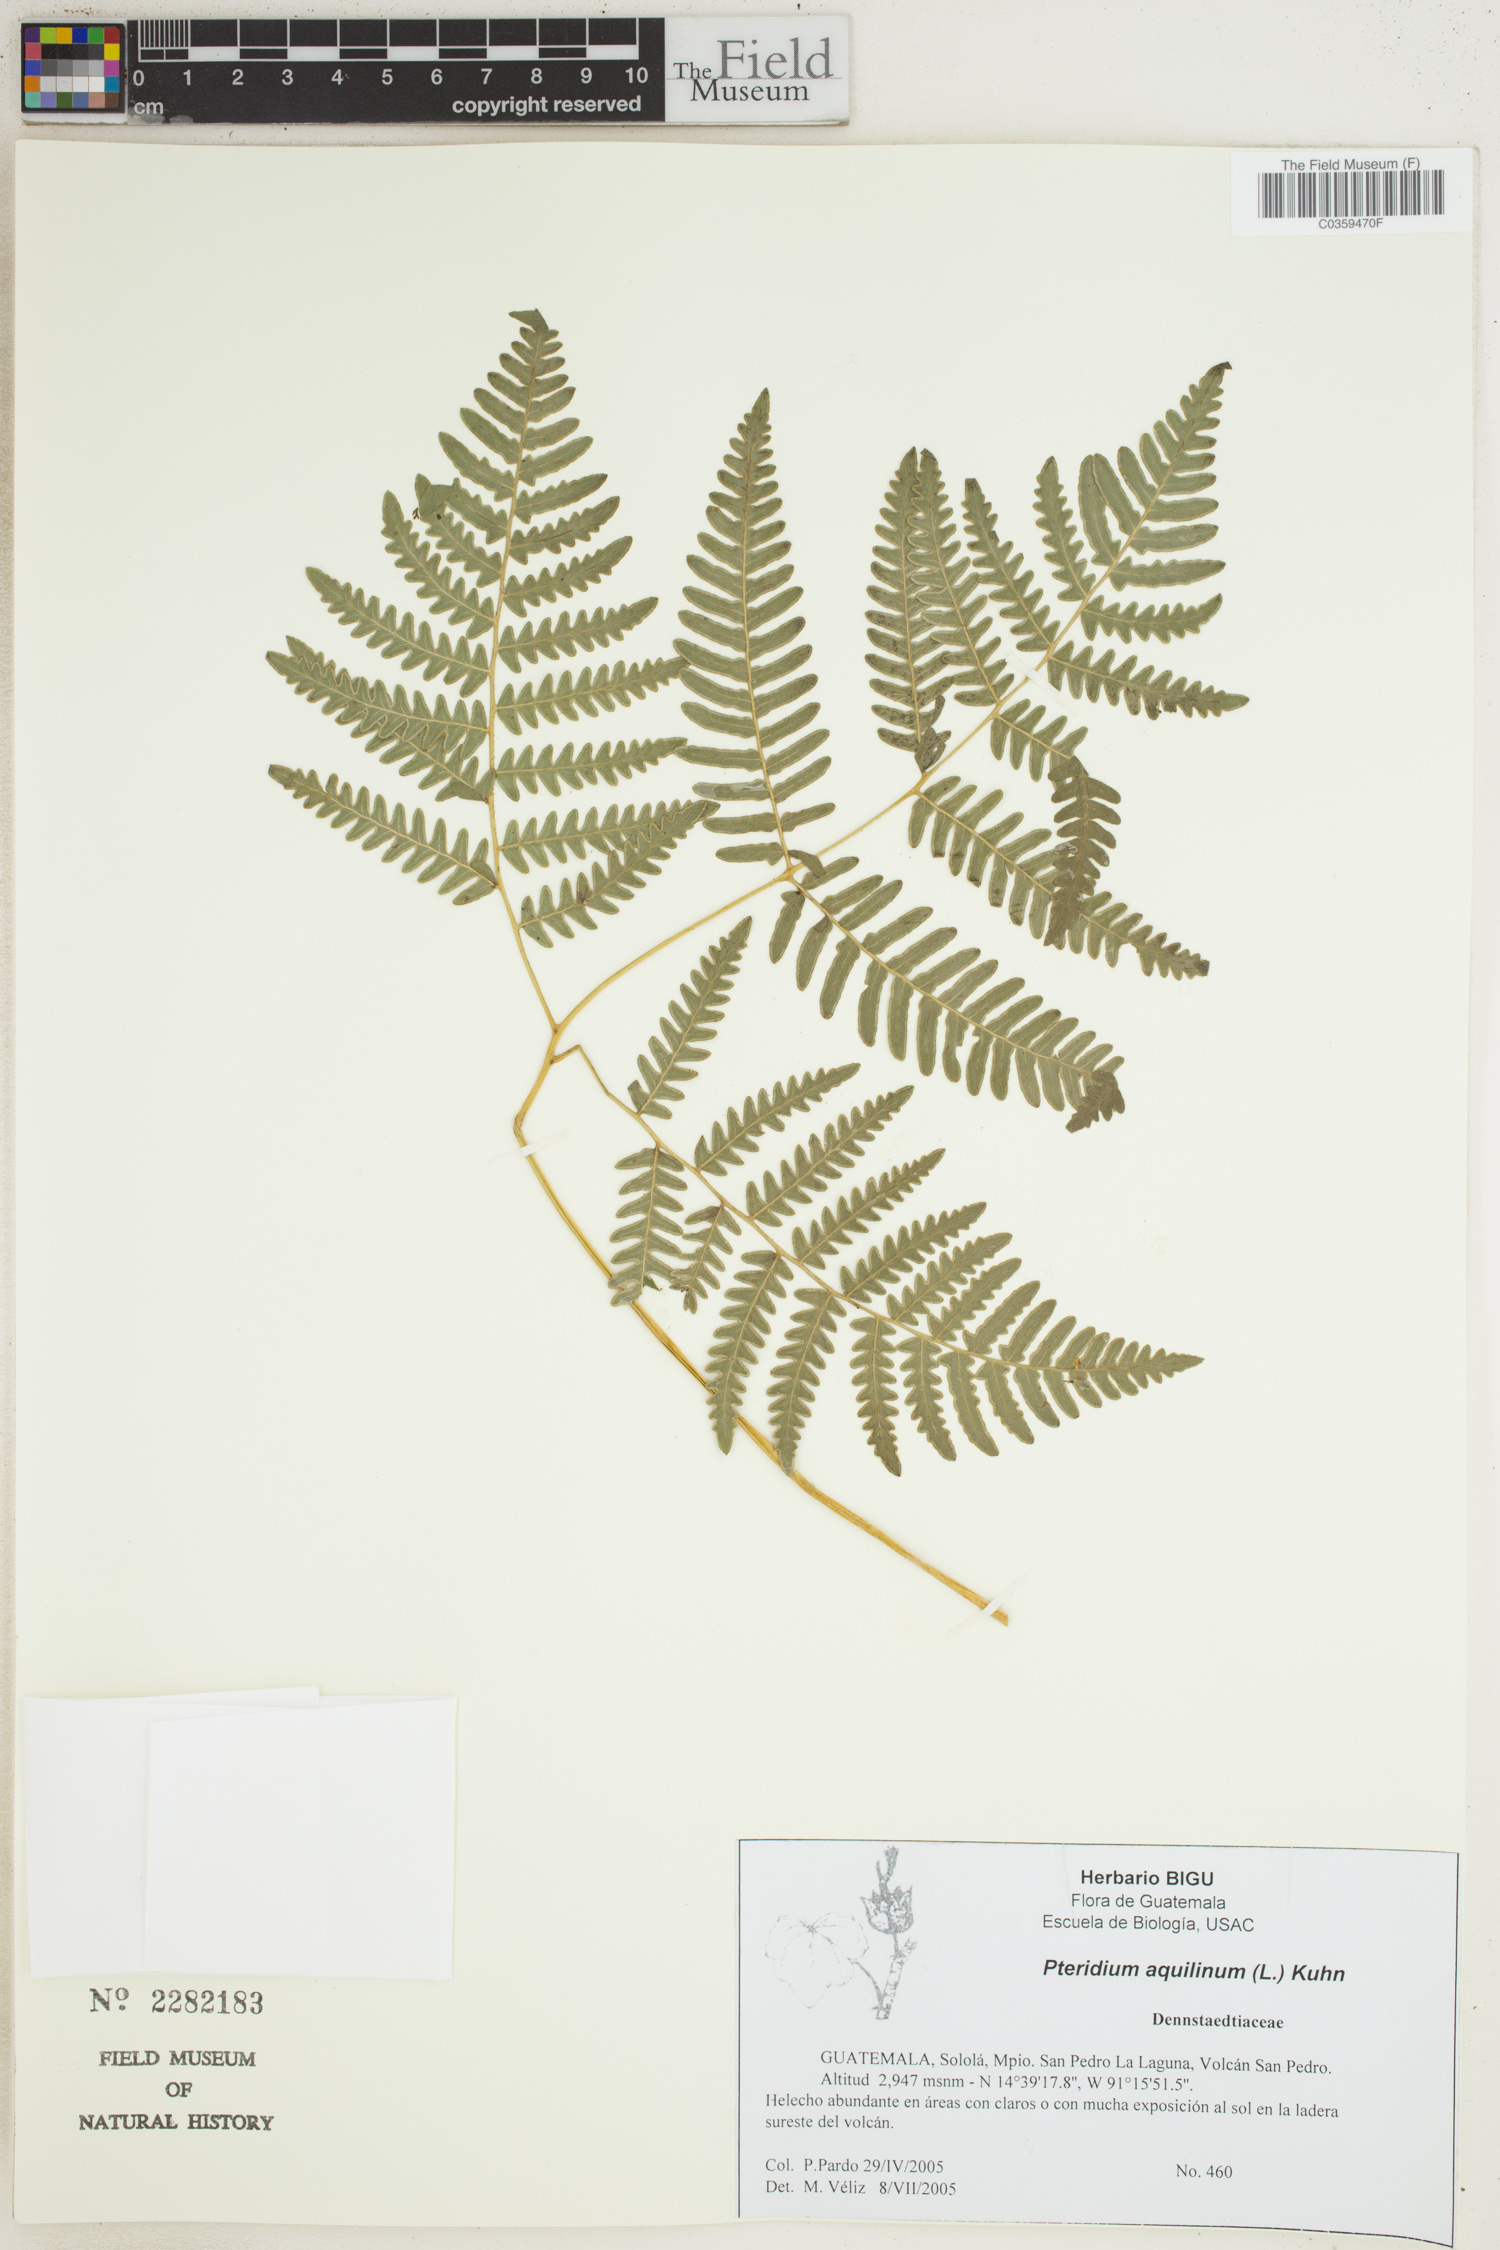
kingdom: Plantae
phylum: Tracheophyta
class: Polypodiopsida
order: Polypodiales
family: Dennstaedtiaceae
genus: Pteridium
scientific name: Pteridium aquilinum
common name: Bracken
